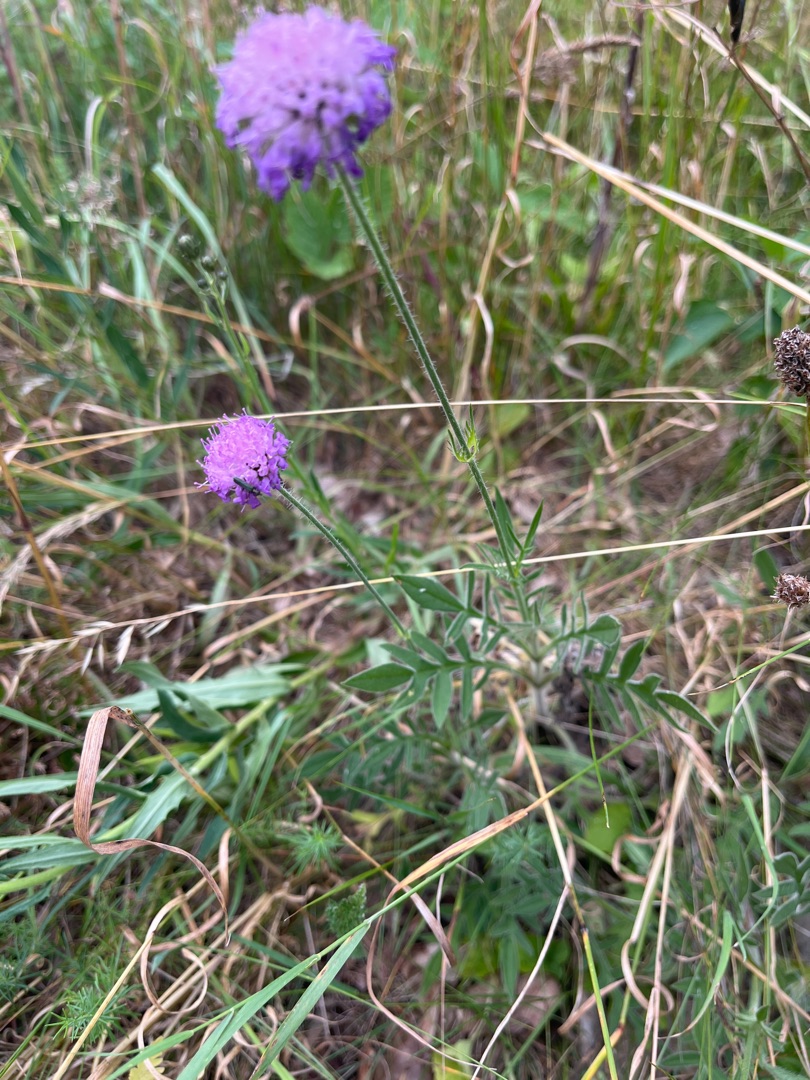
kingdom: Plantae
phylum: Tracheophyta
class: Magnoliopsida
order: Dipsacales
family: Caprifoliaceae
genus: Knautia
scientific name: Knautia arvensis
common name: Blåhat
